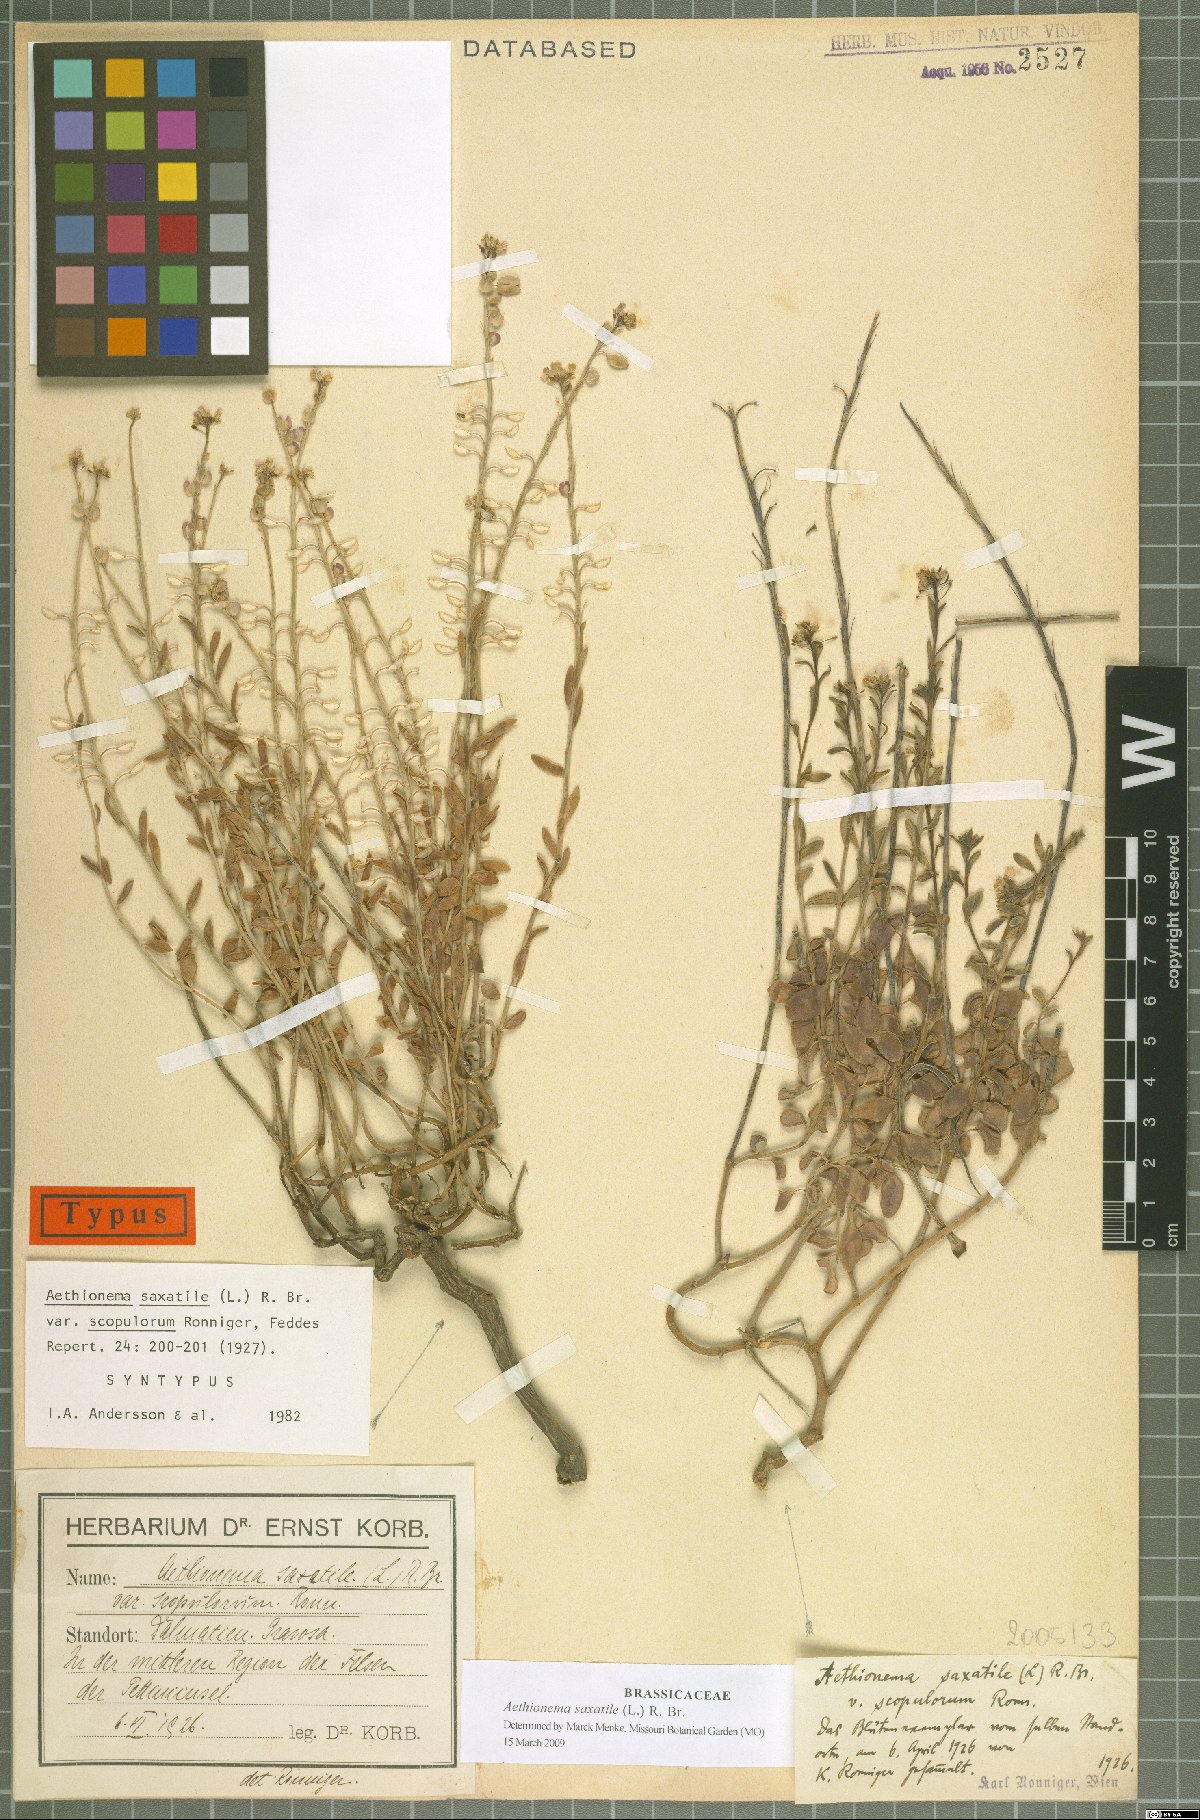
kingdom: Plantae
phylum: Tracheophyta
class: Magnoliopsida
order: Brassicales
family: Brassicaceae
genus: Aethionema
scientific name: Aethionema saxatile
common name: Burnt candytuft
